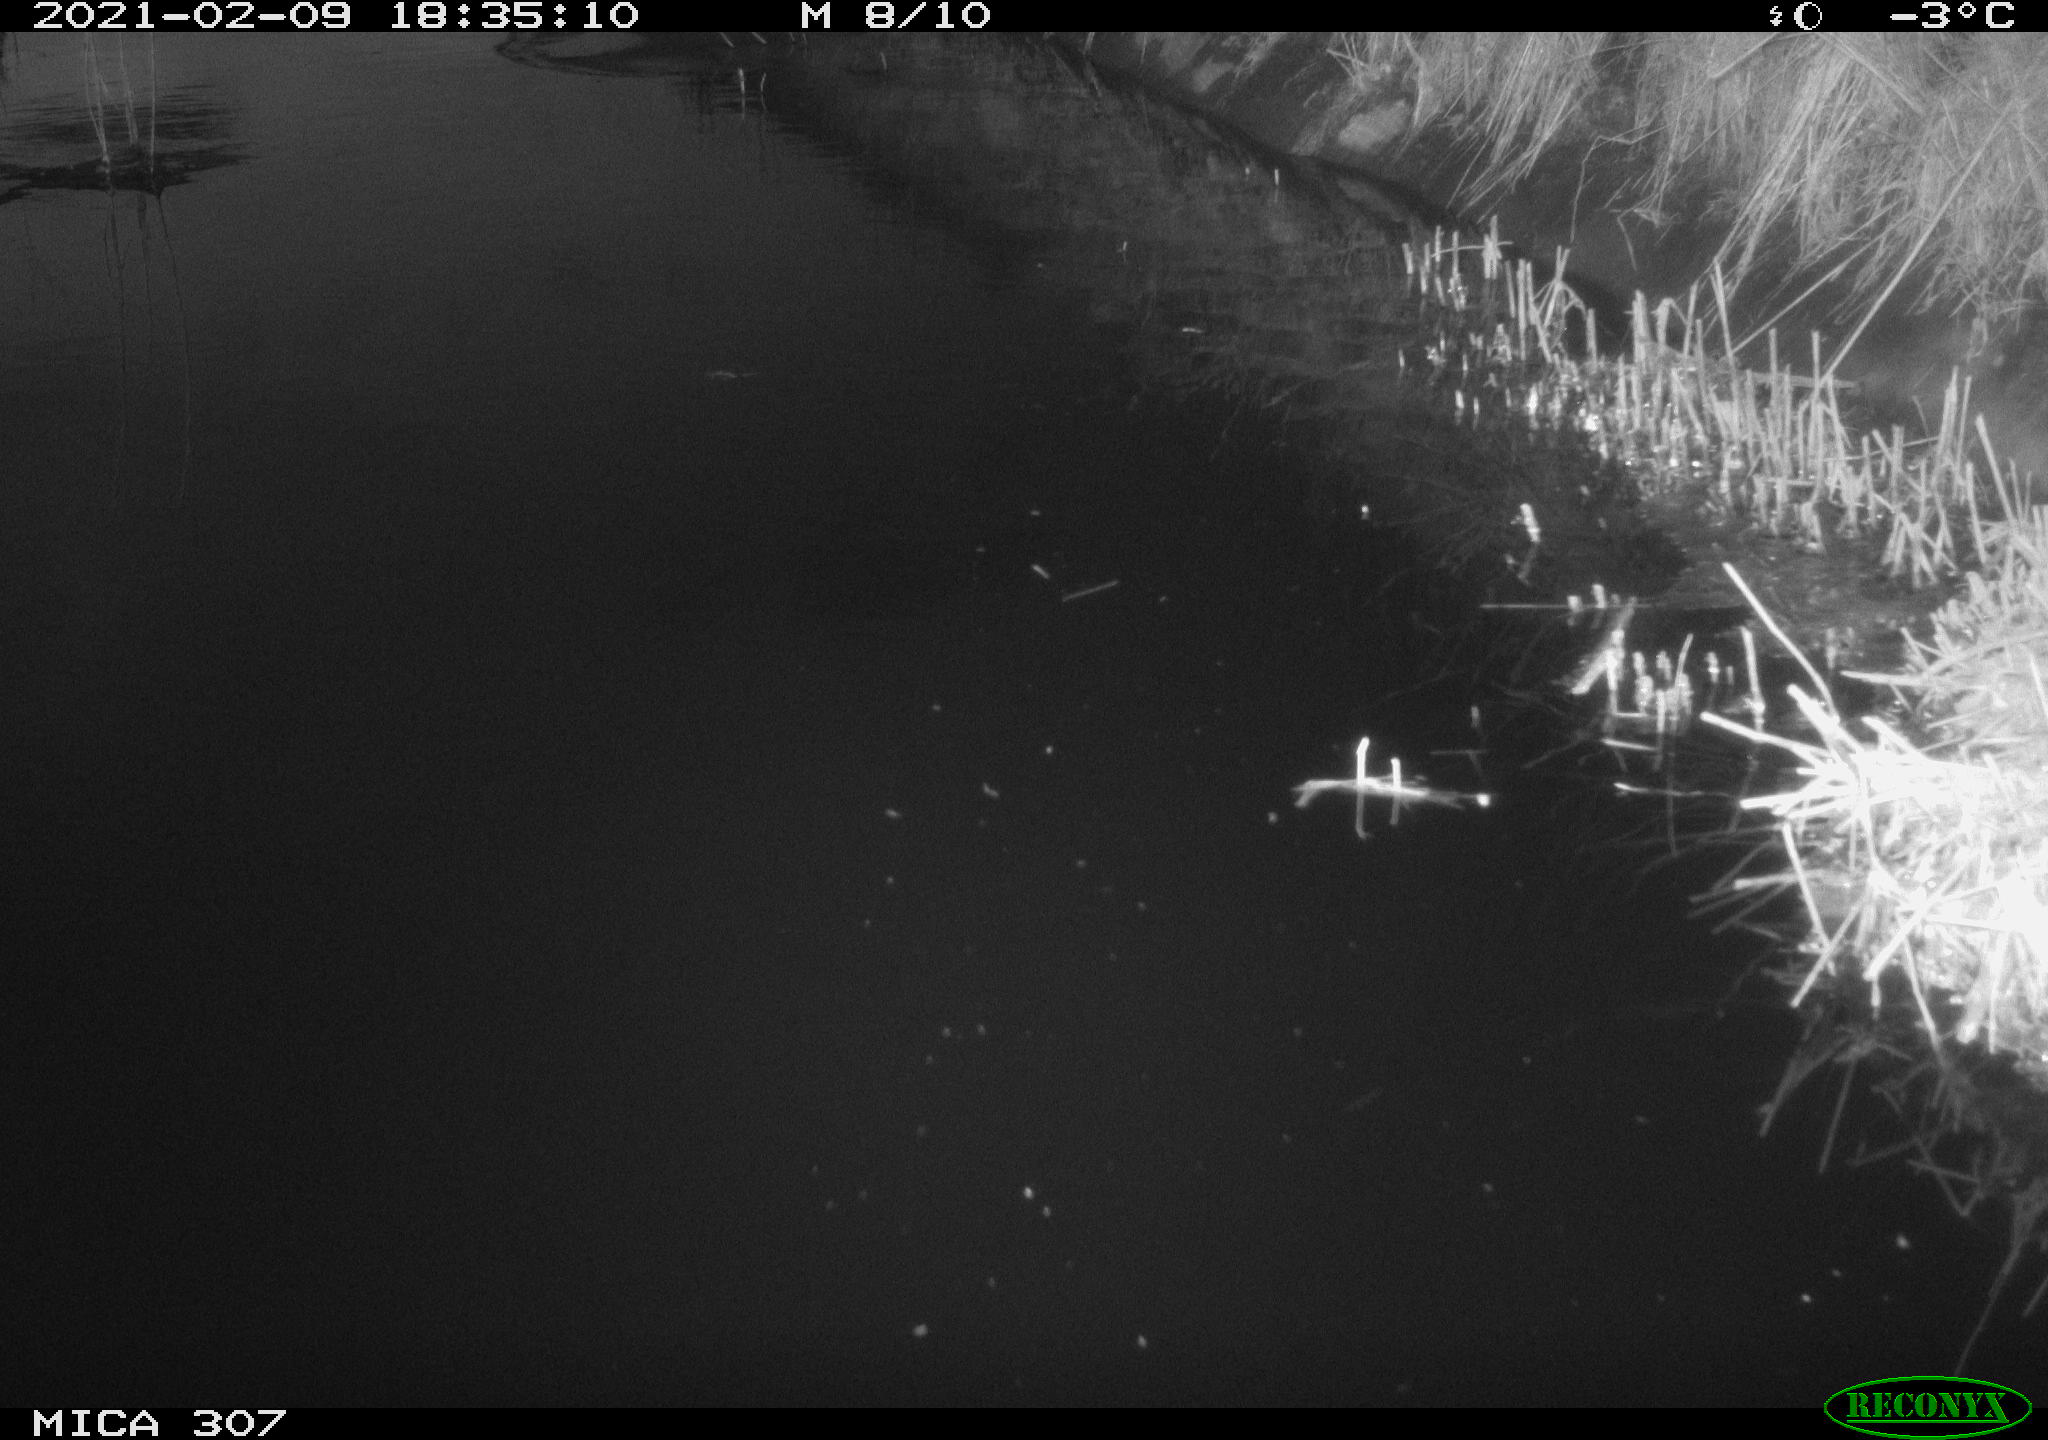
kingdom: Animalia
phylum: Chordata
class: Mammalia
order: Rodentia
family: Muridae
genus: Rattus
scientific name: Rattus norvegicus
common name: Brown rat
